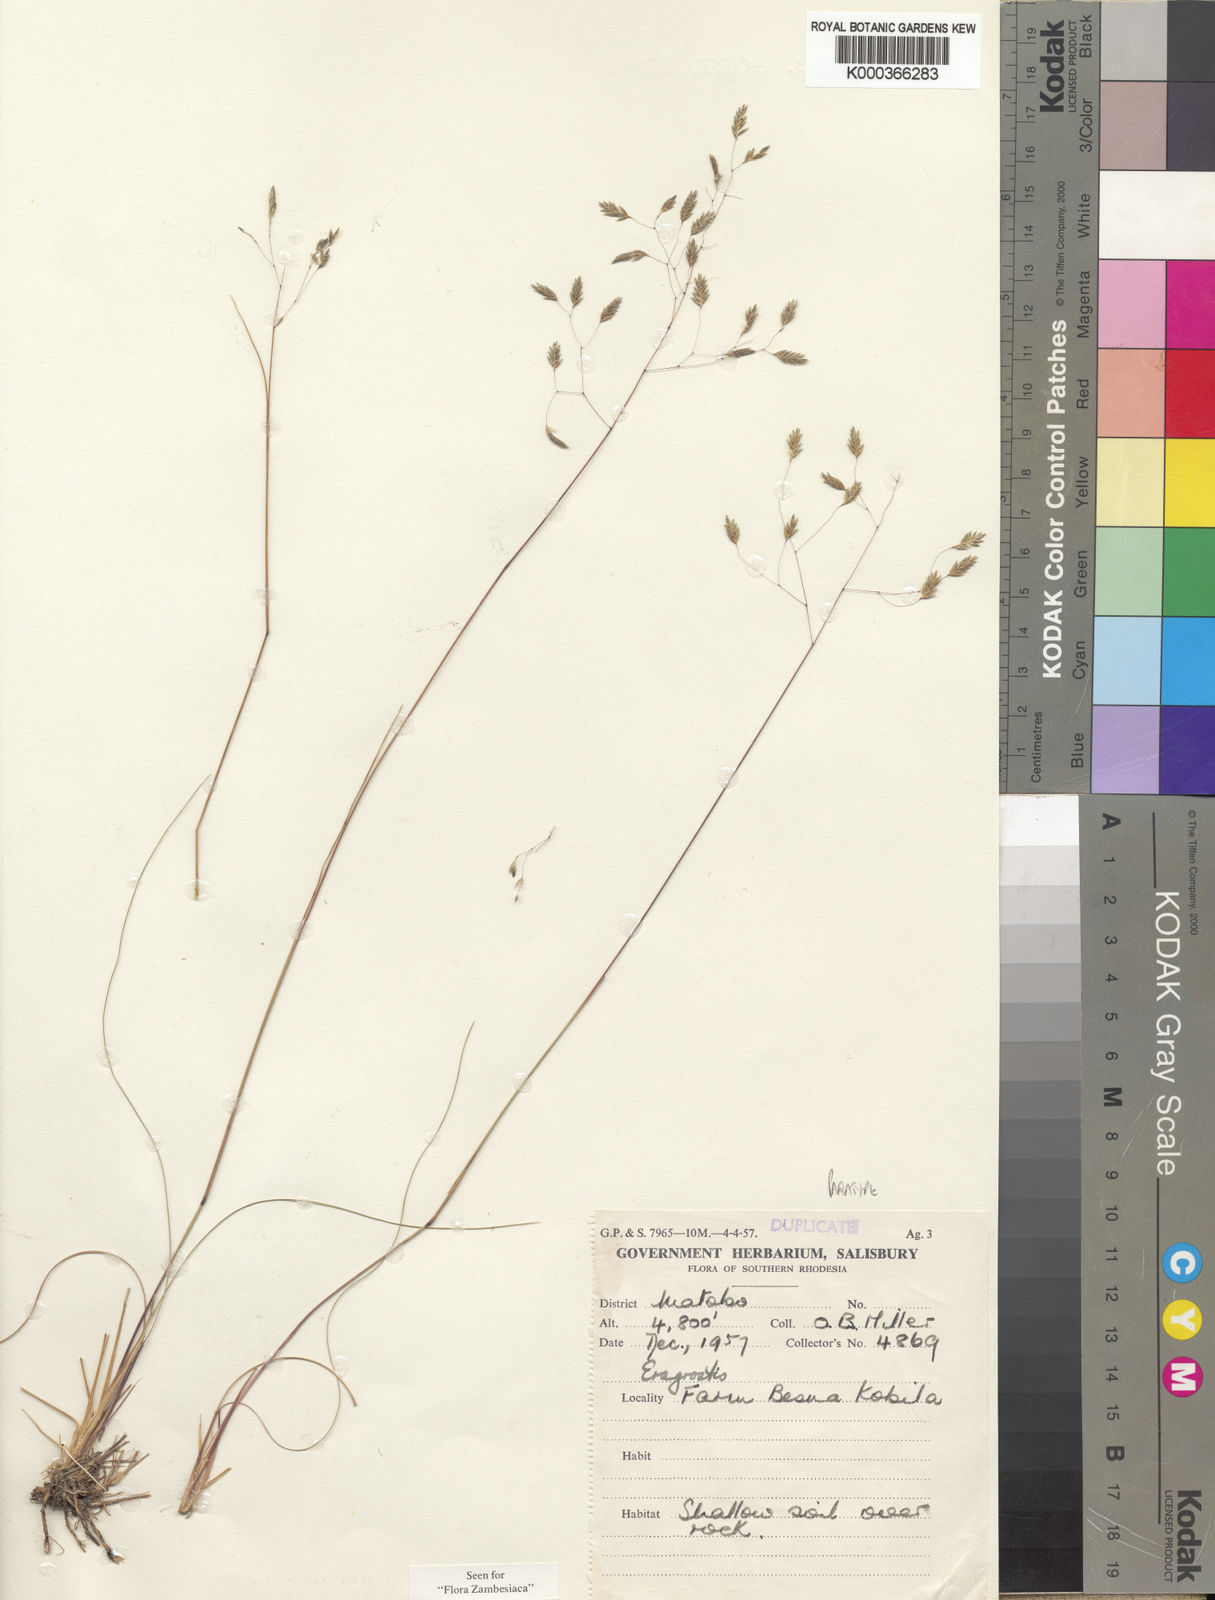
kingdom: Plantae
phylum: Tracheophyta
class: Liliopsida
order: Poales
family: Poaceae
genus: Eragrostis
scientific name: Eragrostis paradoxa
